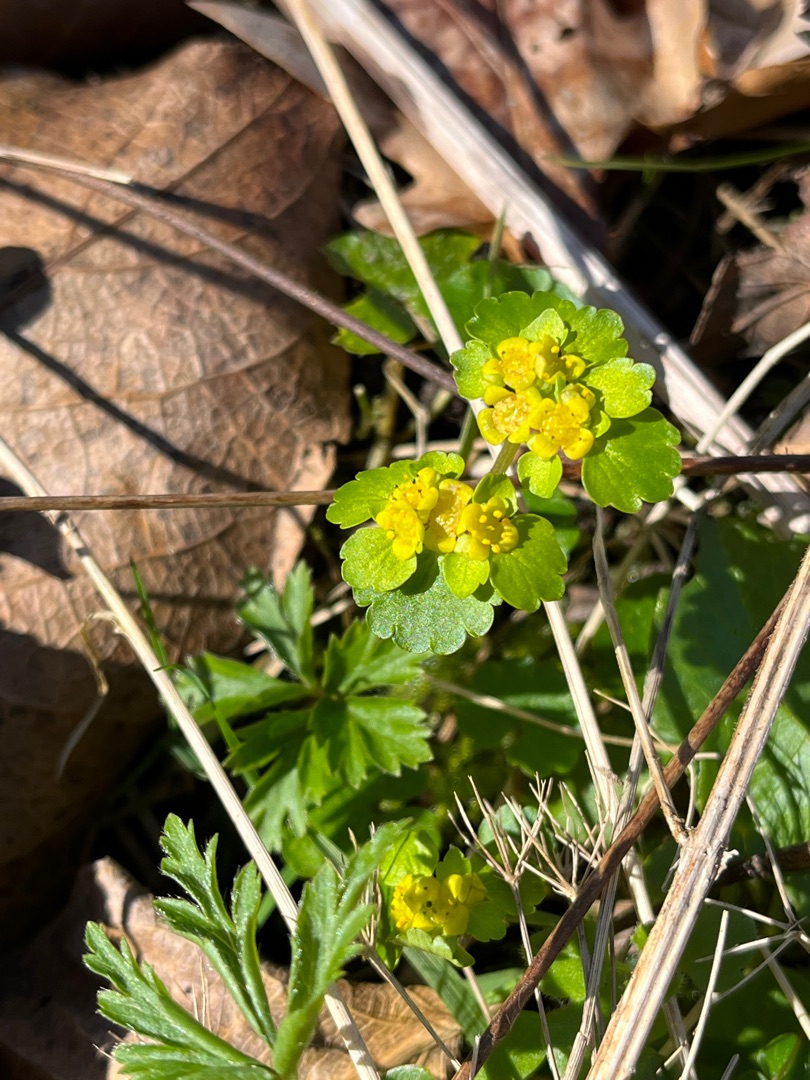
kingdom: Plantae
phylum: Tracheophyta
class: Magnoliopsida
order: Saxifragales
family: Saxifragaceae
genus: Chrysosplenium
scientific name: Chrysosplenium alternifolium
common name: Almindelig milturt
